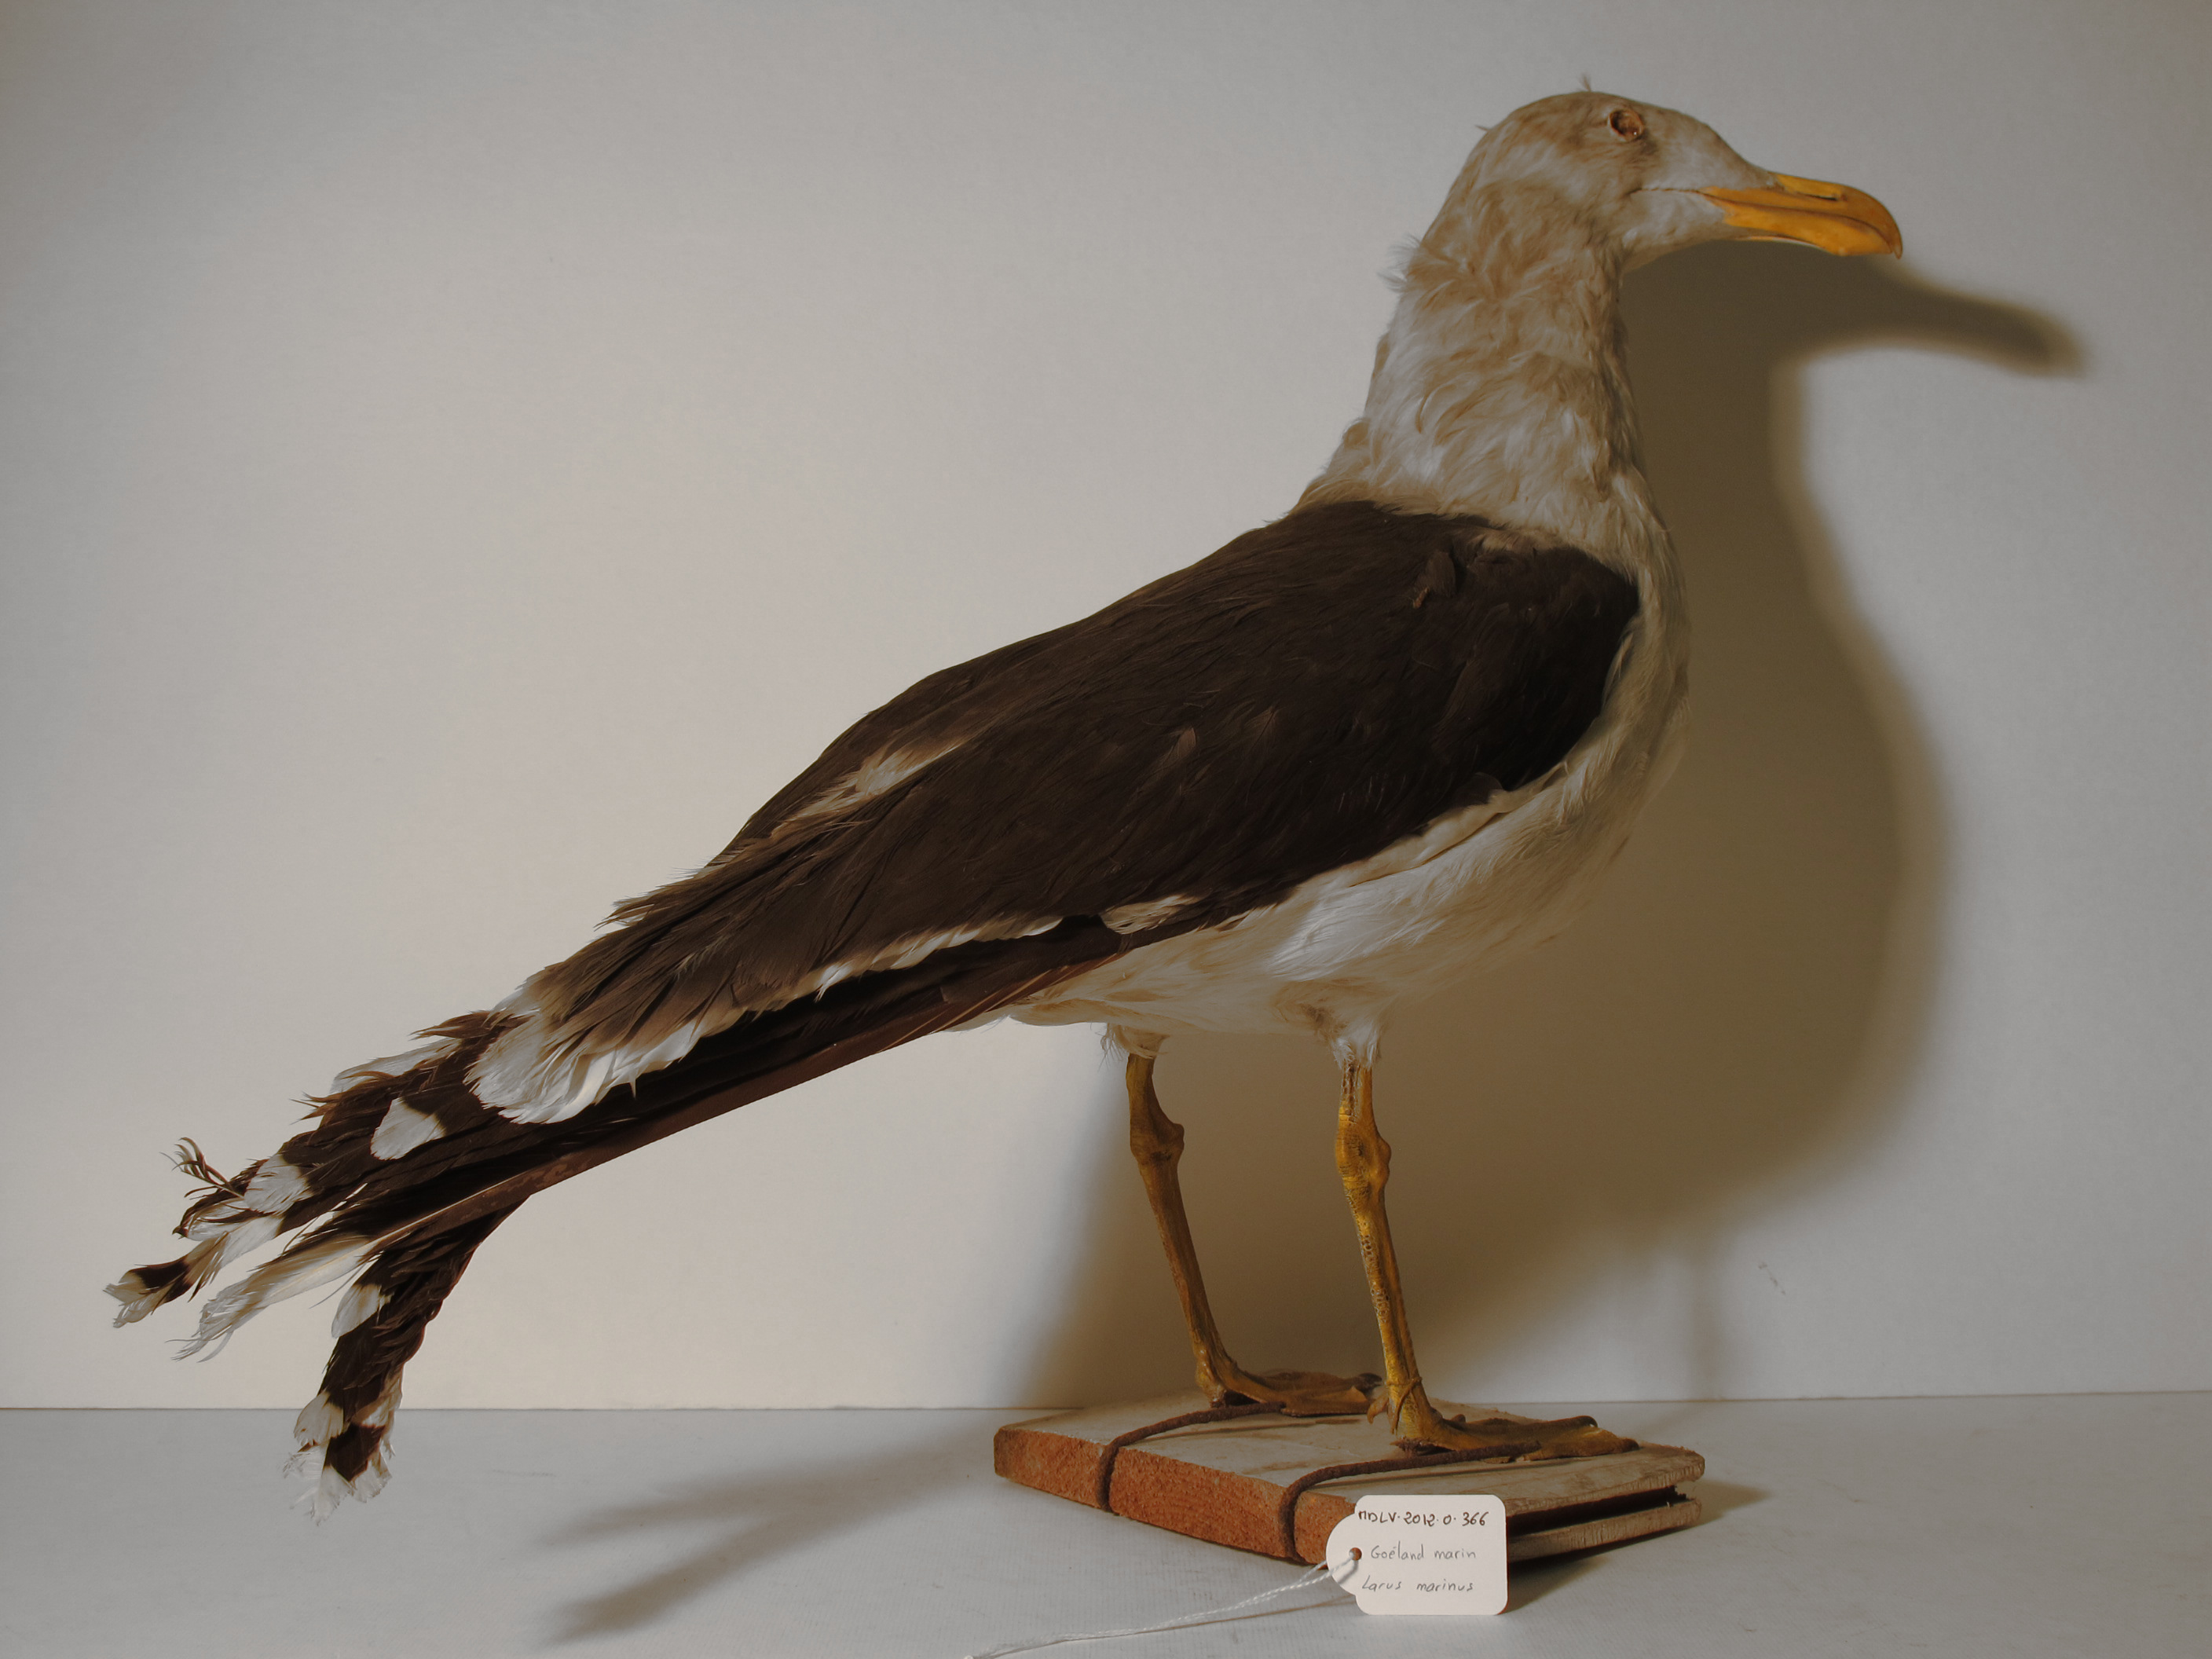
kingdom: Animalia
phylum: Chordata
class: Aves
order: Charadriiformes
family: Laridae
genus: Larus
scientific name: Larus marinus
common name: Great Black-backed Gull
